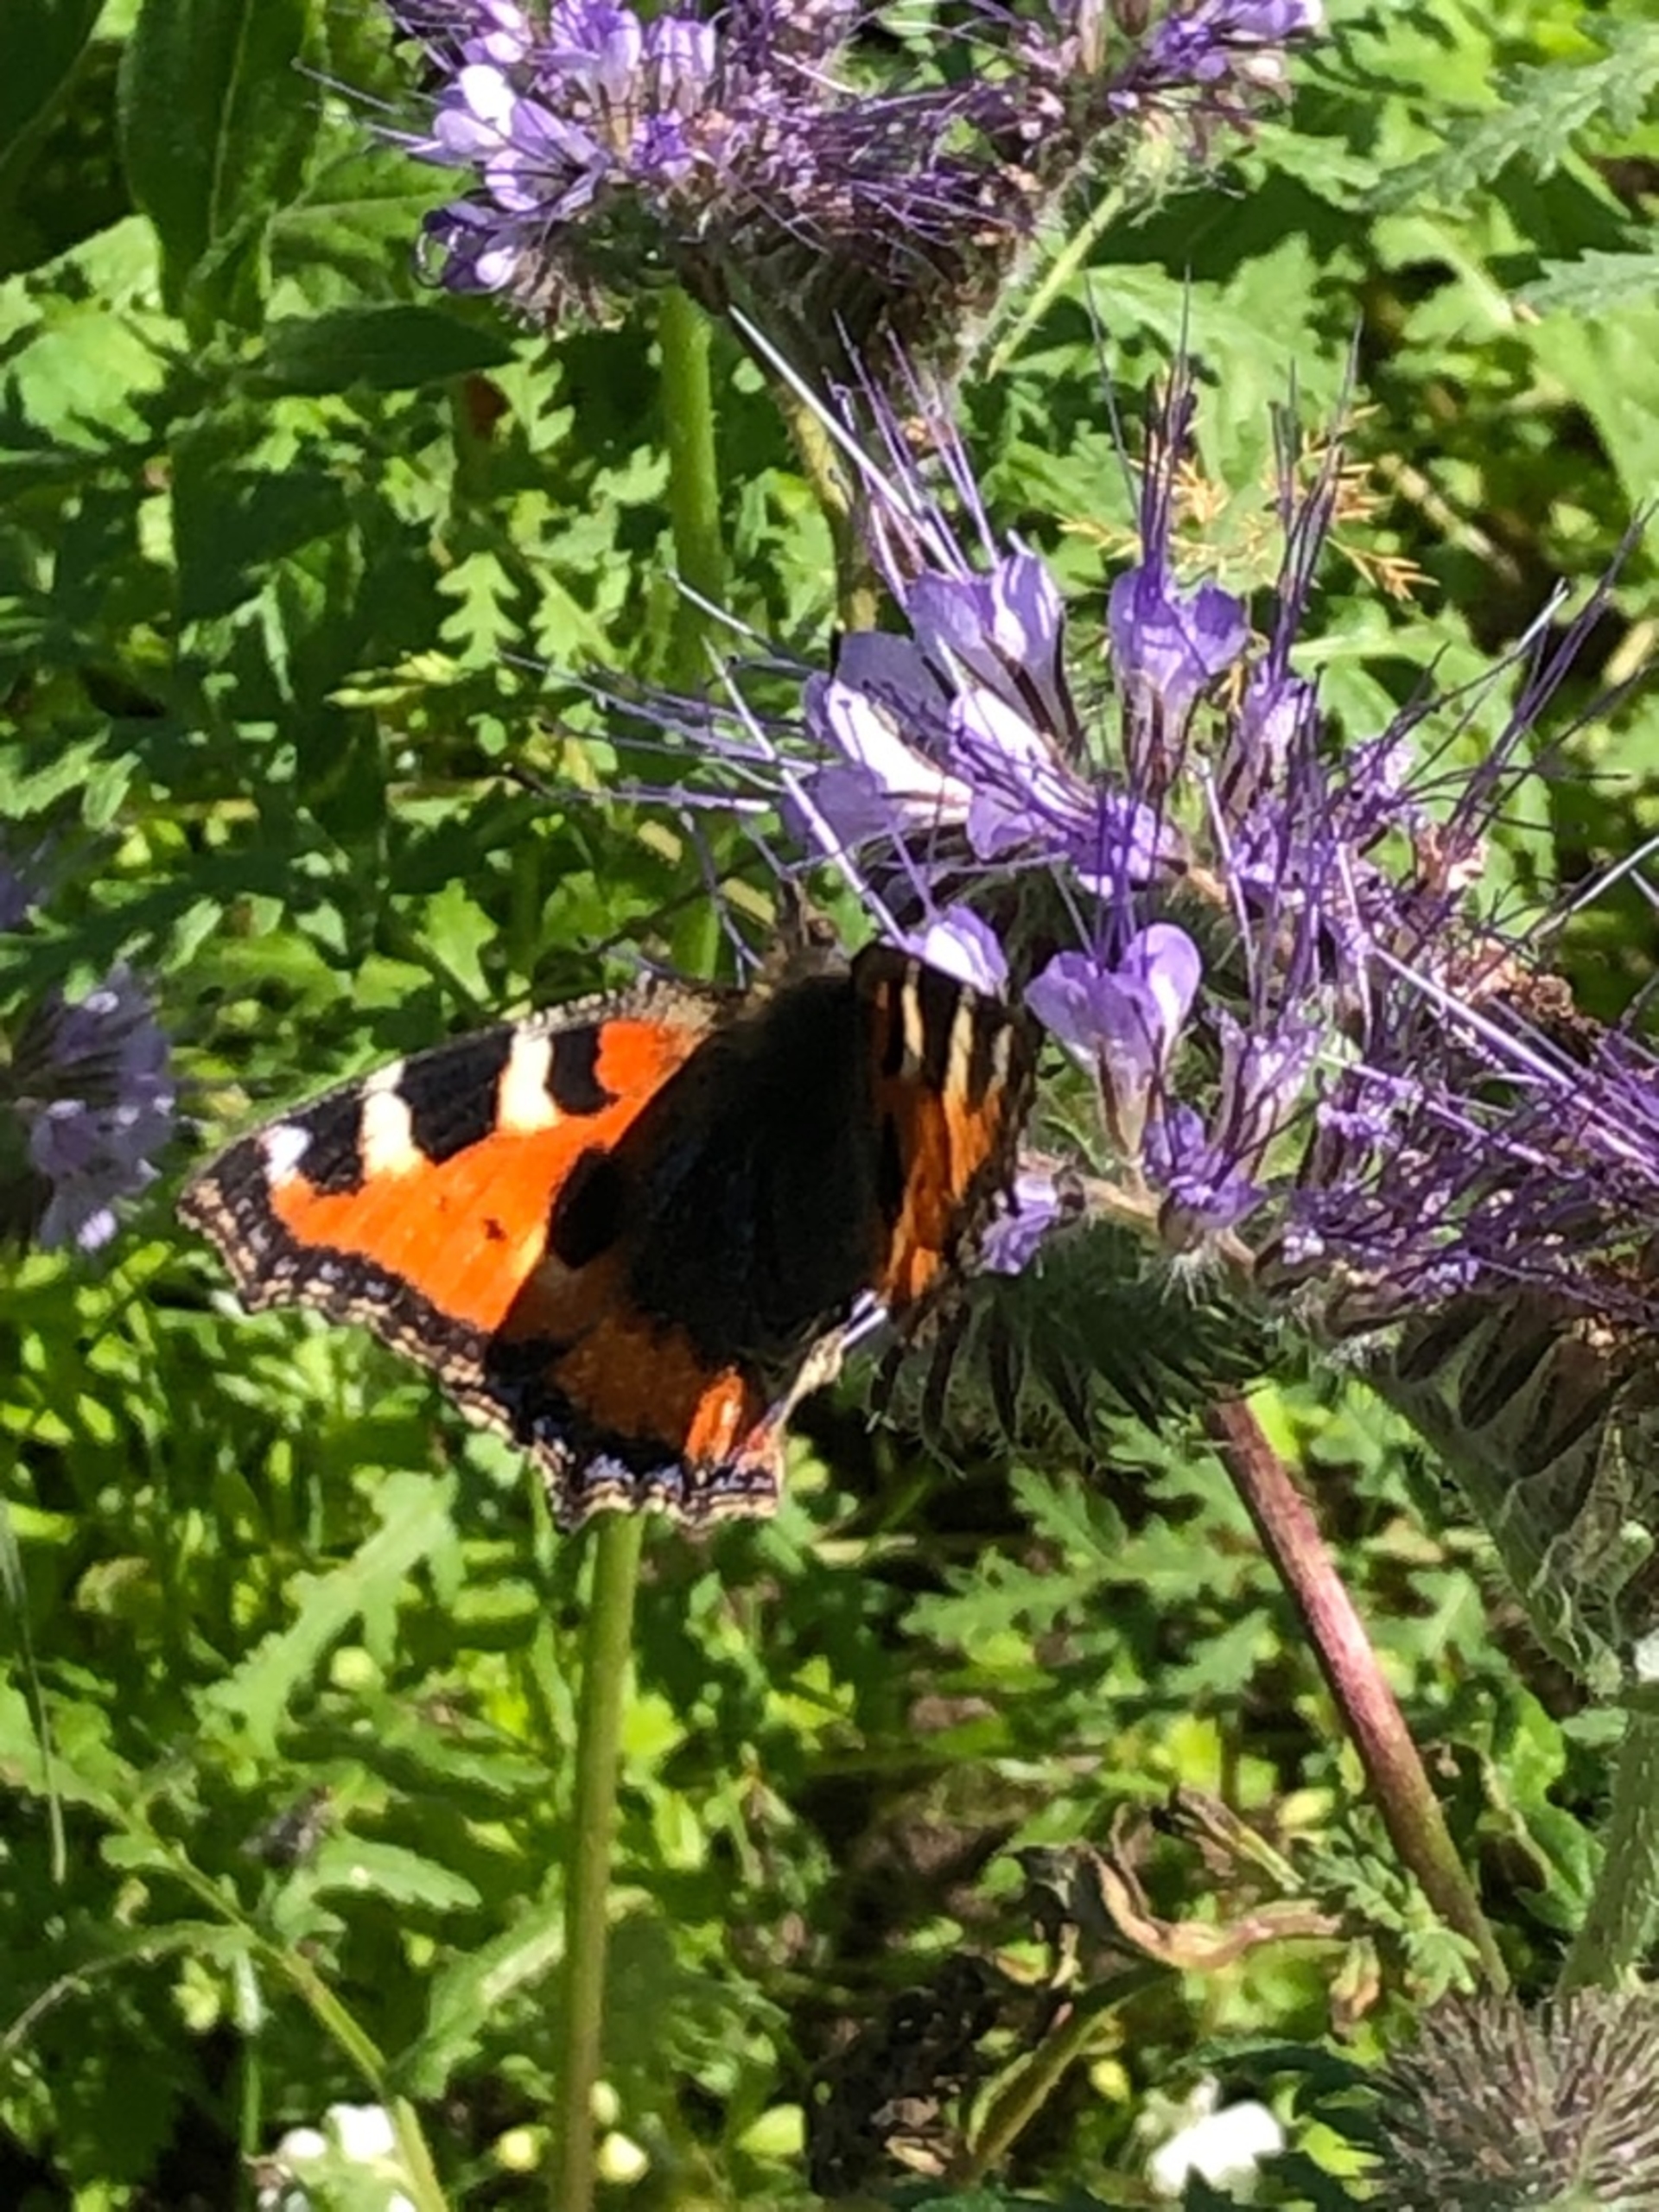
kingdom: Animalia
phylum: Arthropoda
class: Insecta
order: Lepidoptera
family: Nymphalidae
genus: Aglais
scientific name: Aglais urticae
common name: Nældens takvinge
